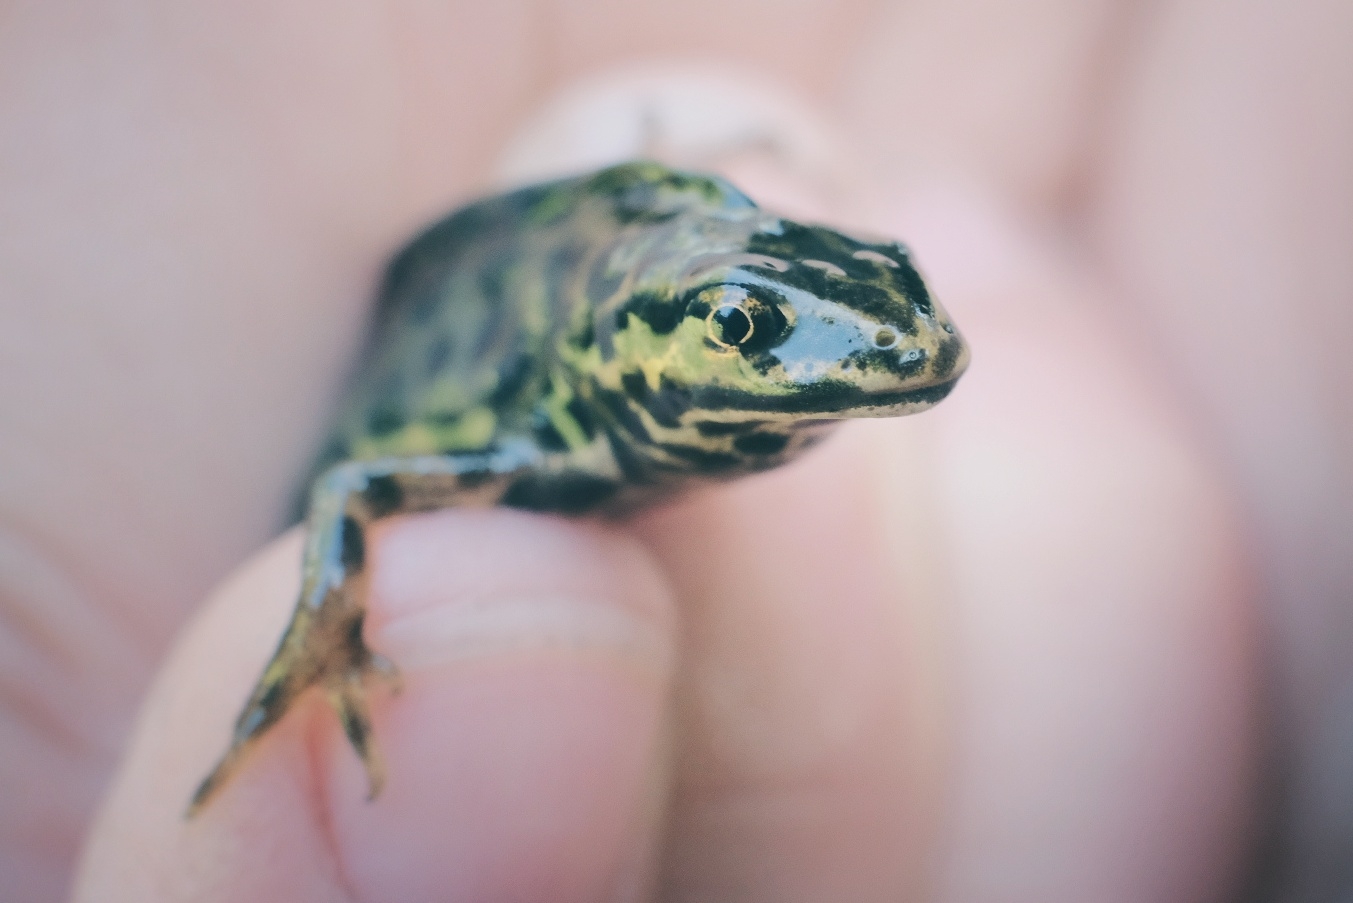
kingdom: Animalia
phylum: Chordata
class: Amphibia
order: Caudata
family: Salamandridae
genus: Lissotriton
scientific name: Lissotriton vulgaris
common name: Lille vandsalamander
